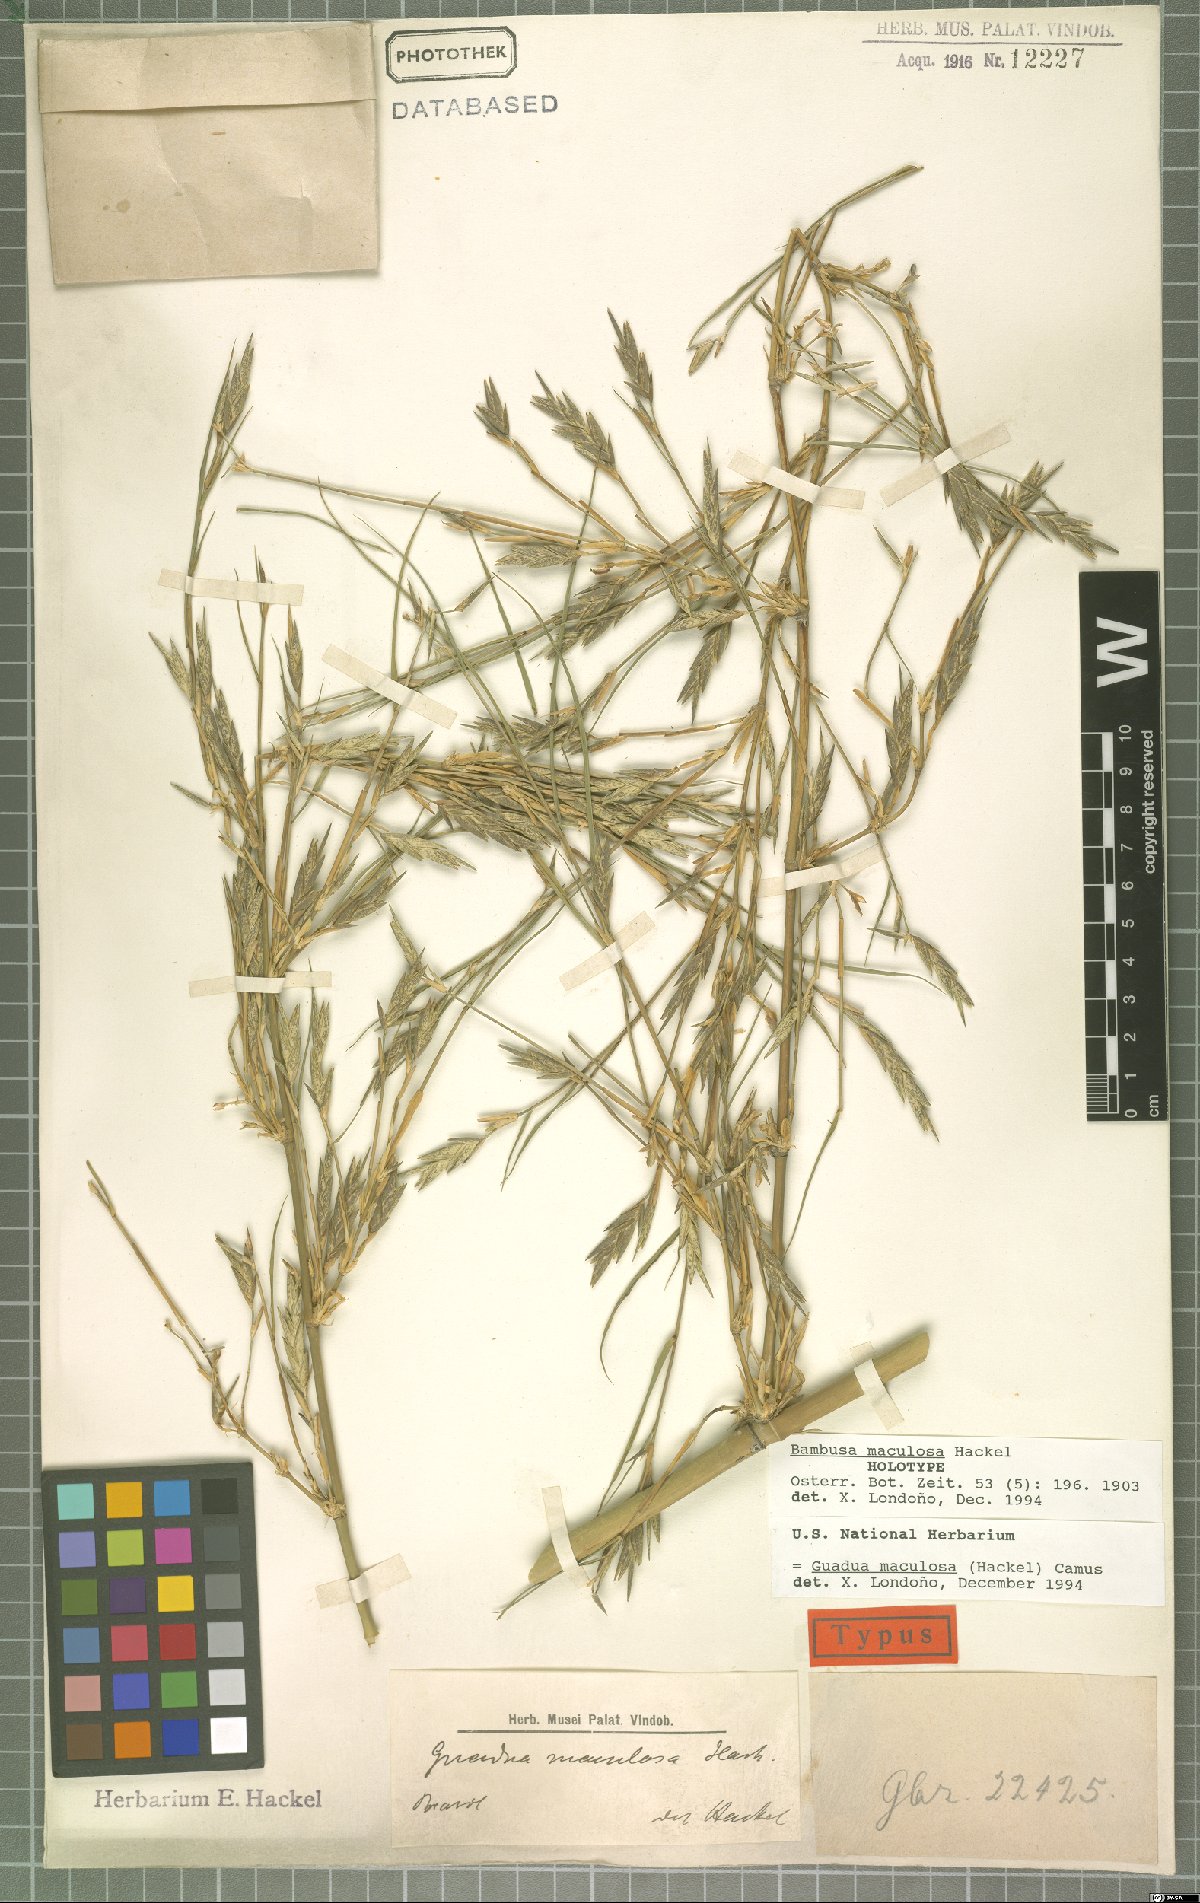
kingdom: Plantae
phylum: Tracheophyta
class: Liliopsida
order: Poales
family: Poaceae
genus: Guadua
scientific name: Guadua maculosa
